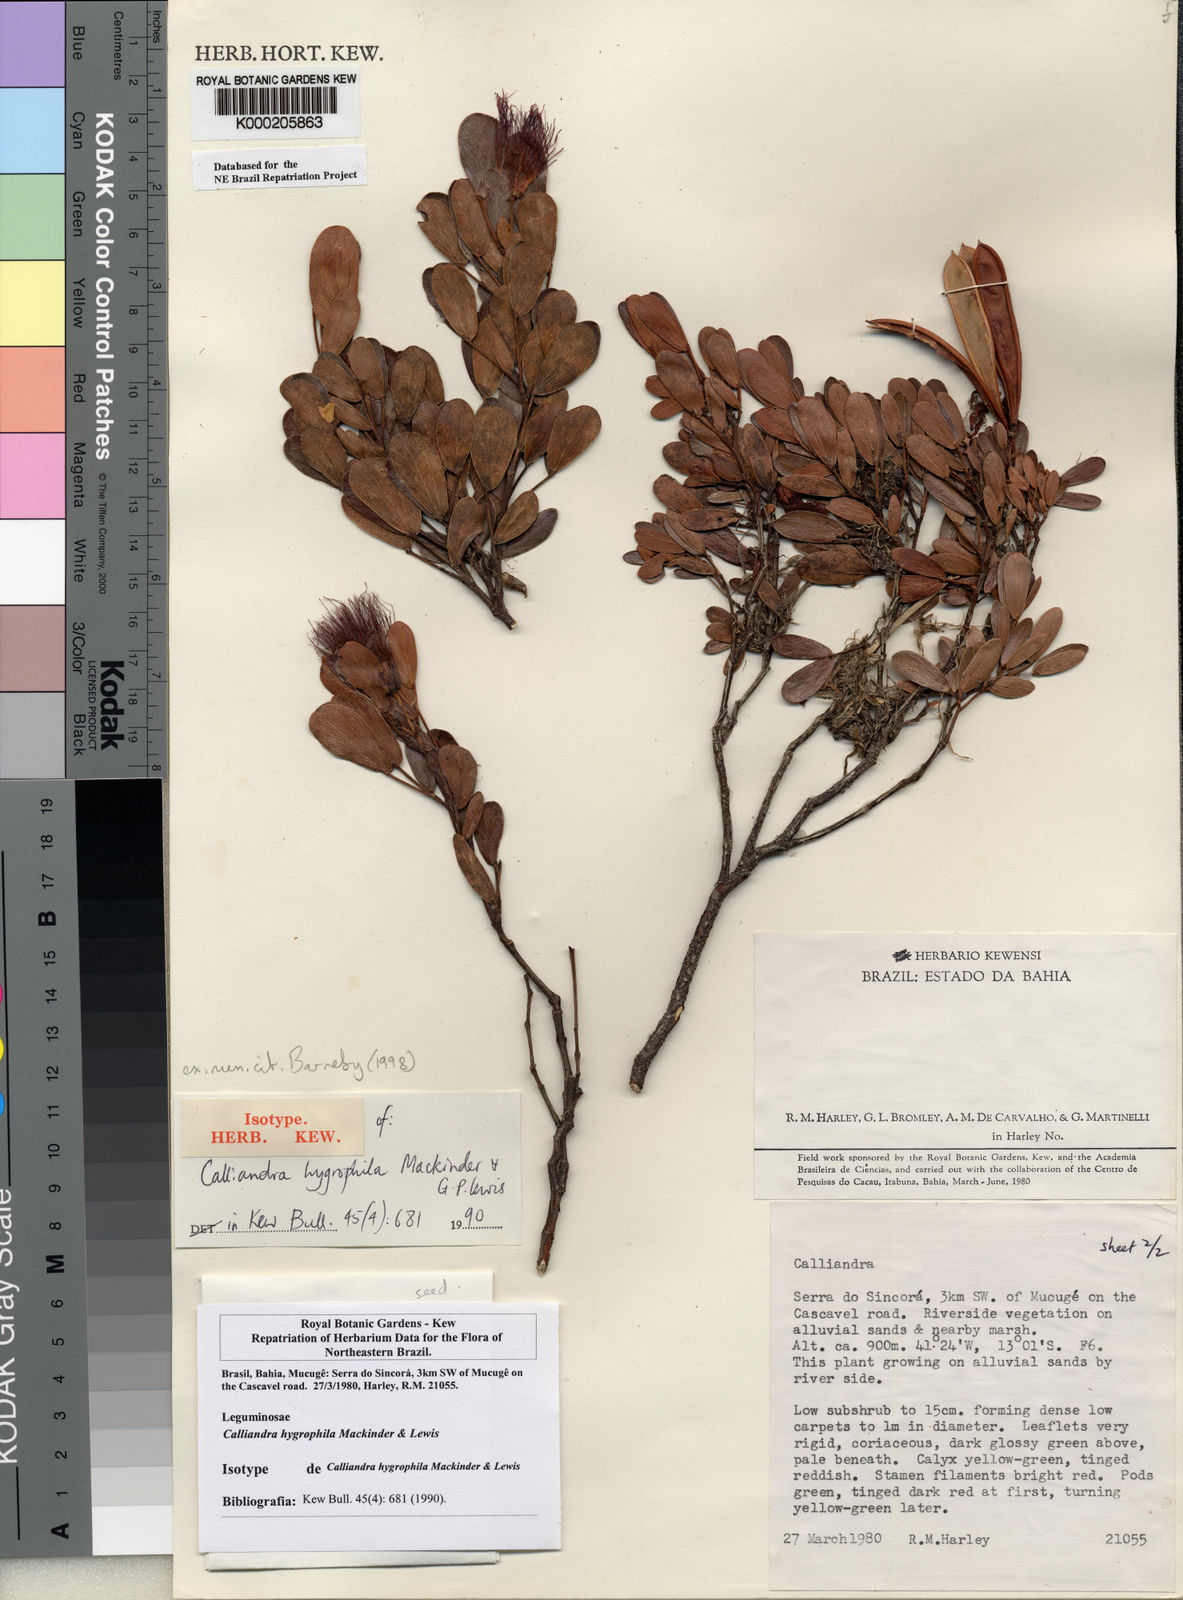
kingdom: Plantae
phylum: Tracheophyta
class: Magnoliopsida
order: Fabales
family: Fabaceae
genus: Calliandra
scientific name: Calliandra hygrophila
